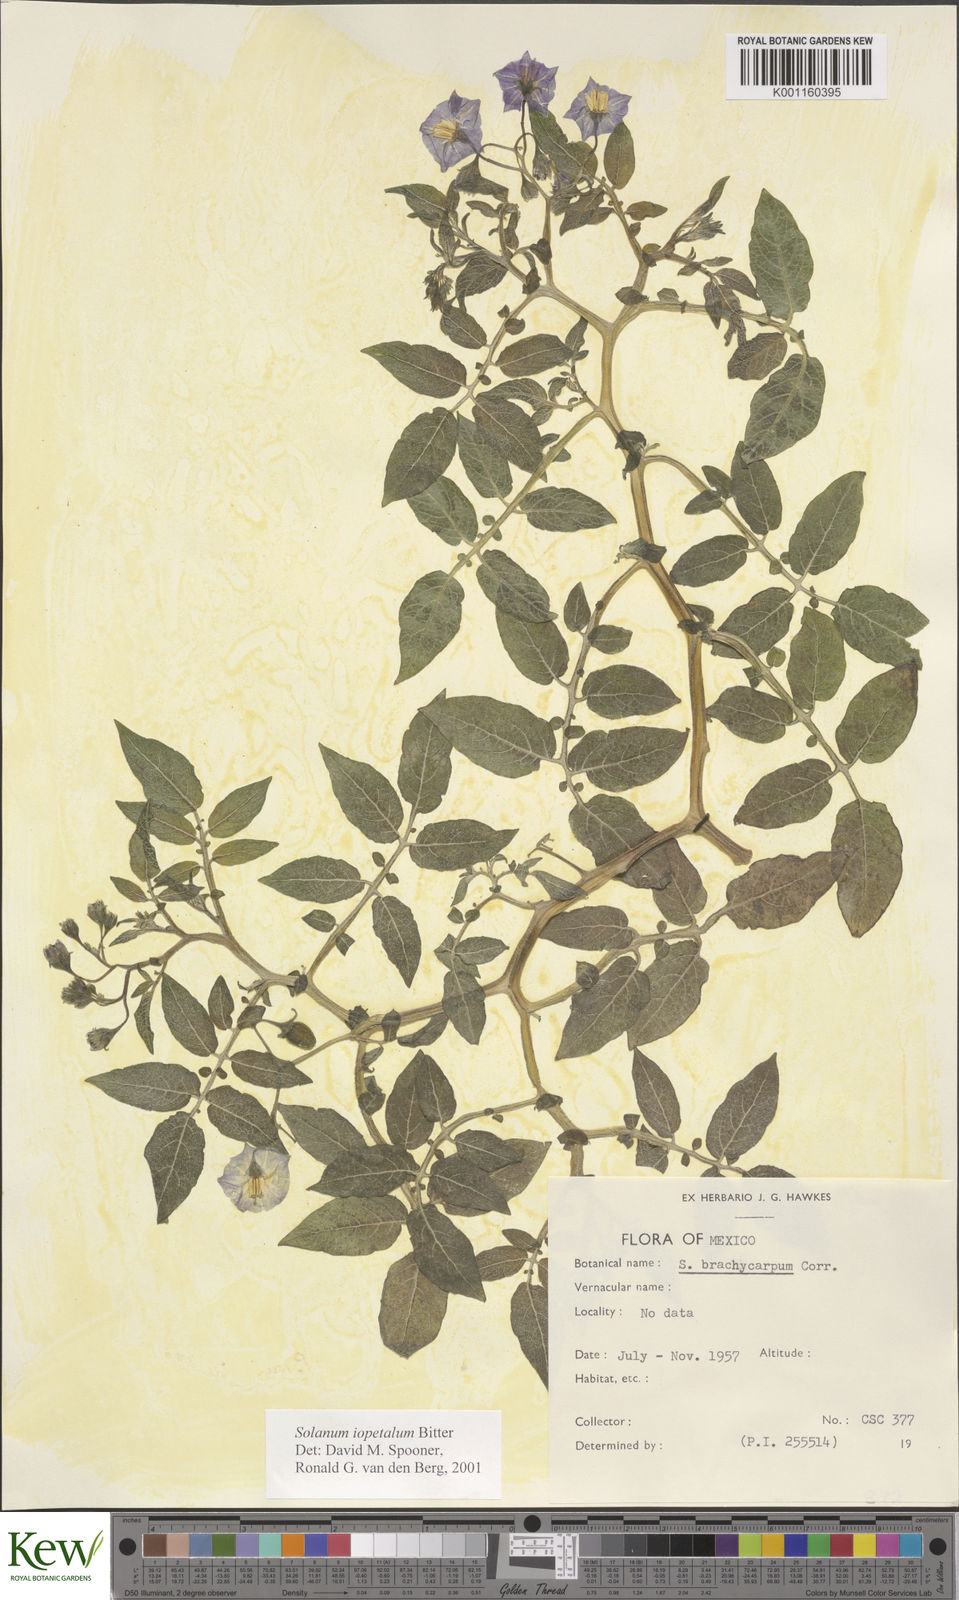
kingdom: Plantae
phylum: Tracheophyta
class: Magnoliopsida
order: Solanales
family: Solanaceae
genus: Solanum
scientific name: Solanum iopetalum
